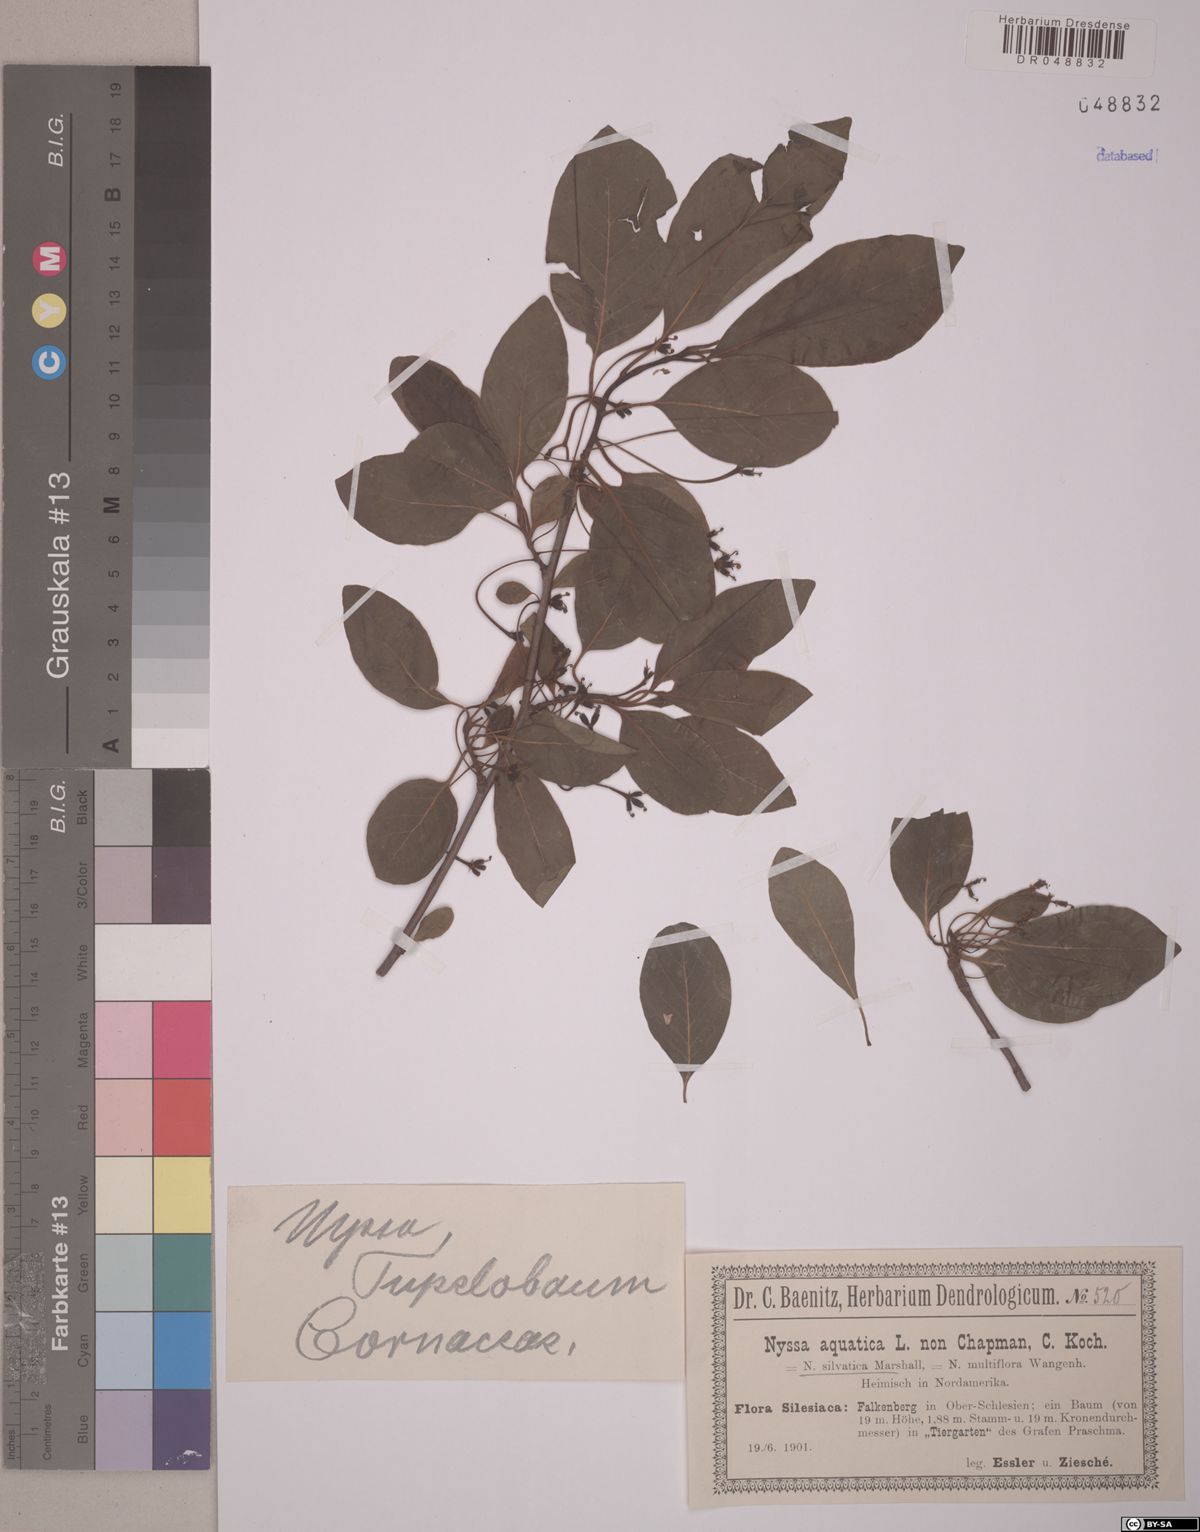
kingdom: Plantae
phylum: Tracheophyta
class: Magnoliopsida
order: Cornales
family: Nyssaceae
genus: Nyssa
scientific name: Nyssa aquatica
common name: Swamp tupelo
